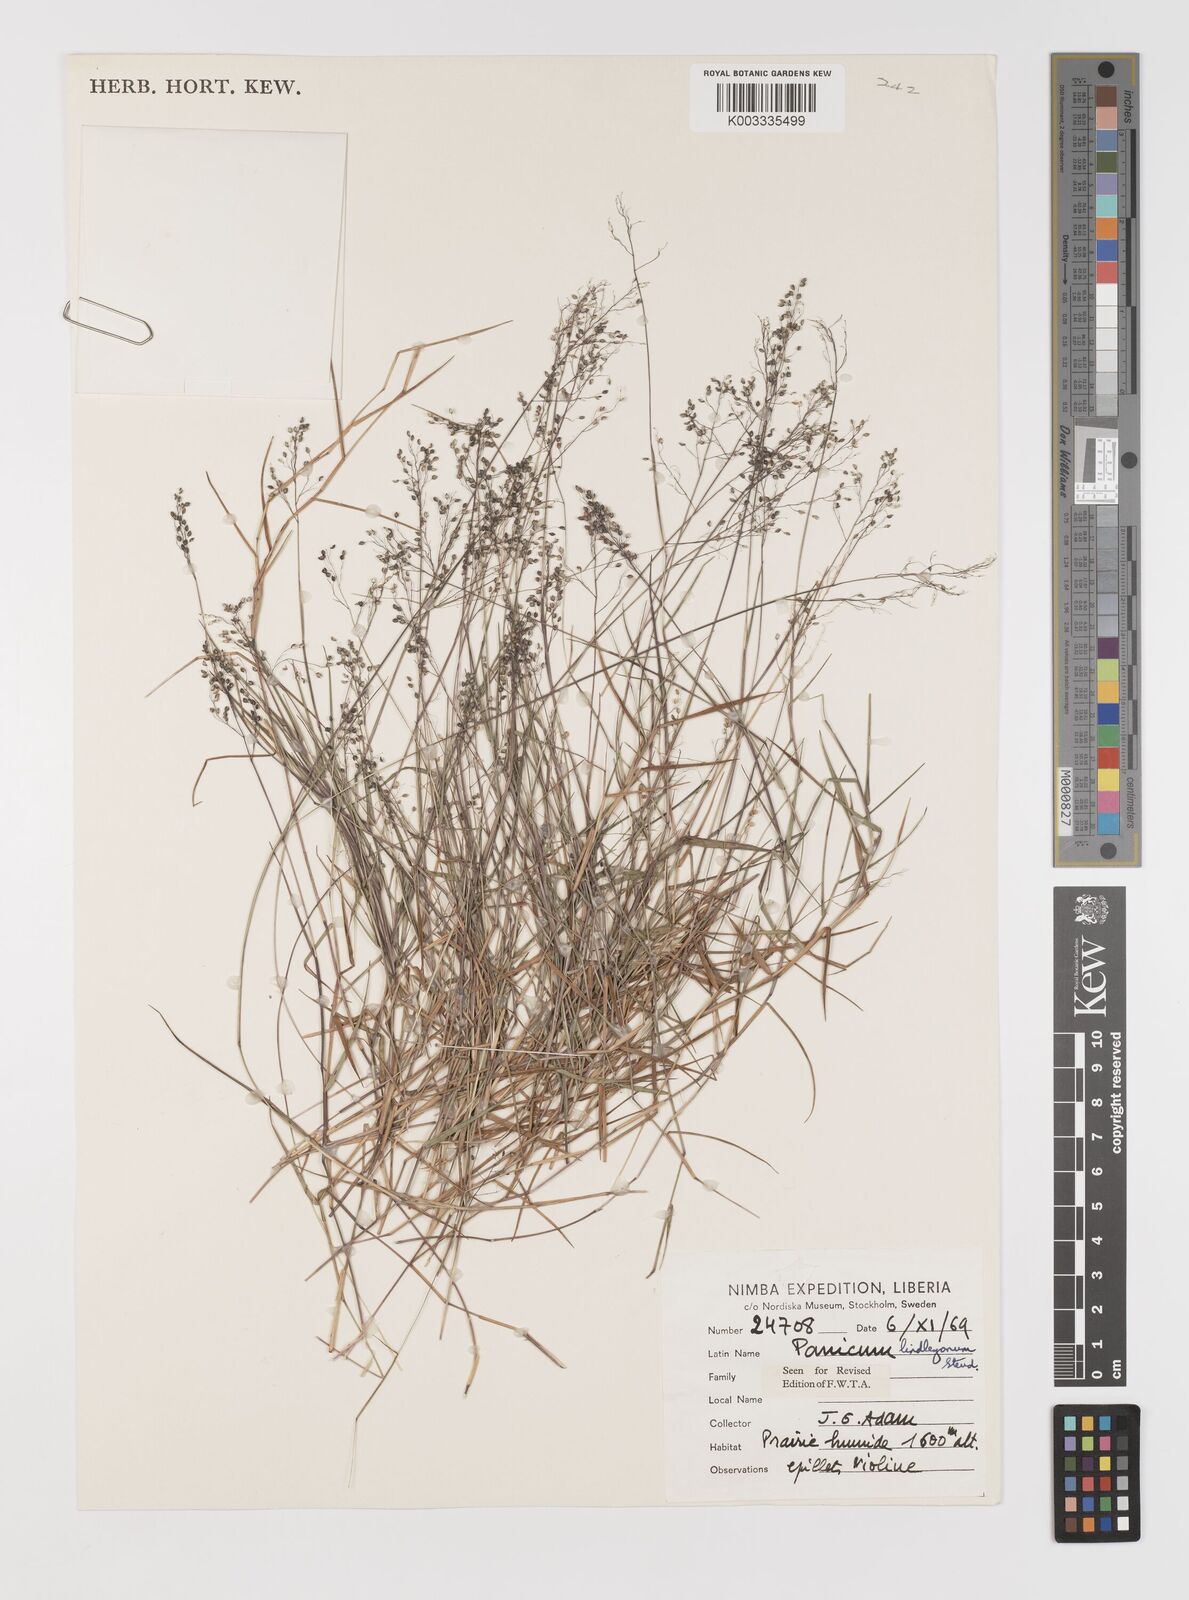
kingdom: Plantae
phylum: Tracheophyta
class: Liliopsida
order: Poales
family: Poaceae
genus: Trichanthecium
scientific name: Trichanthecium tenellum
